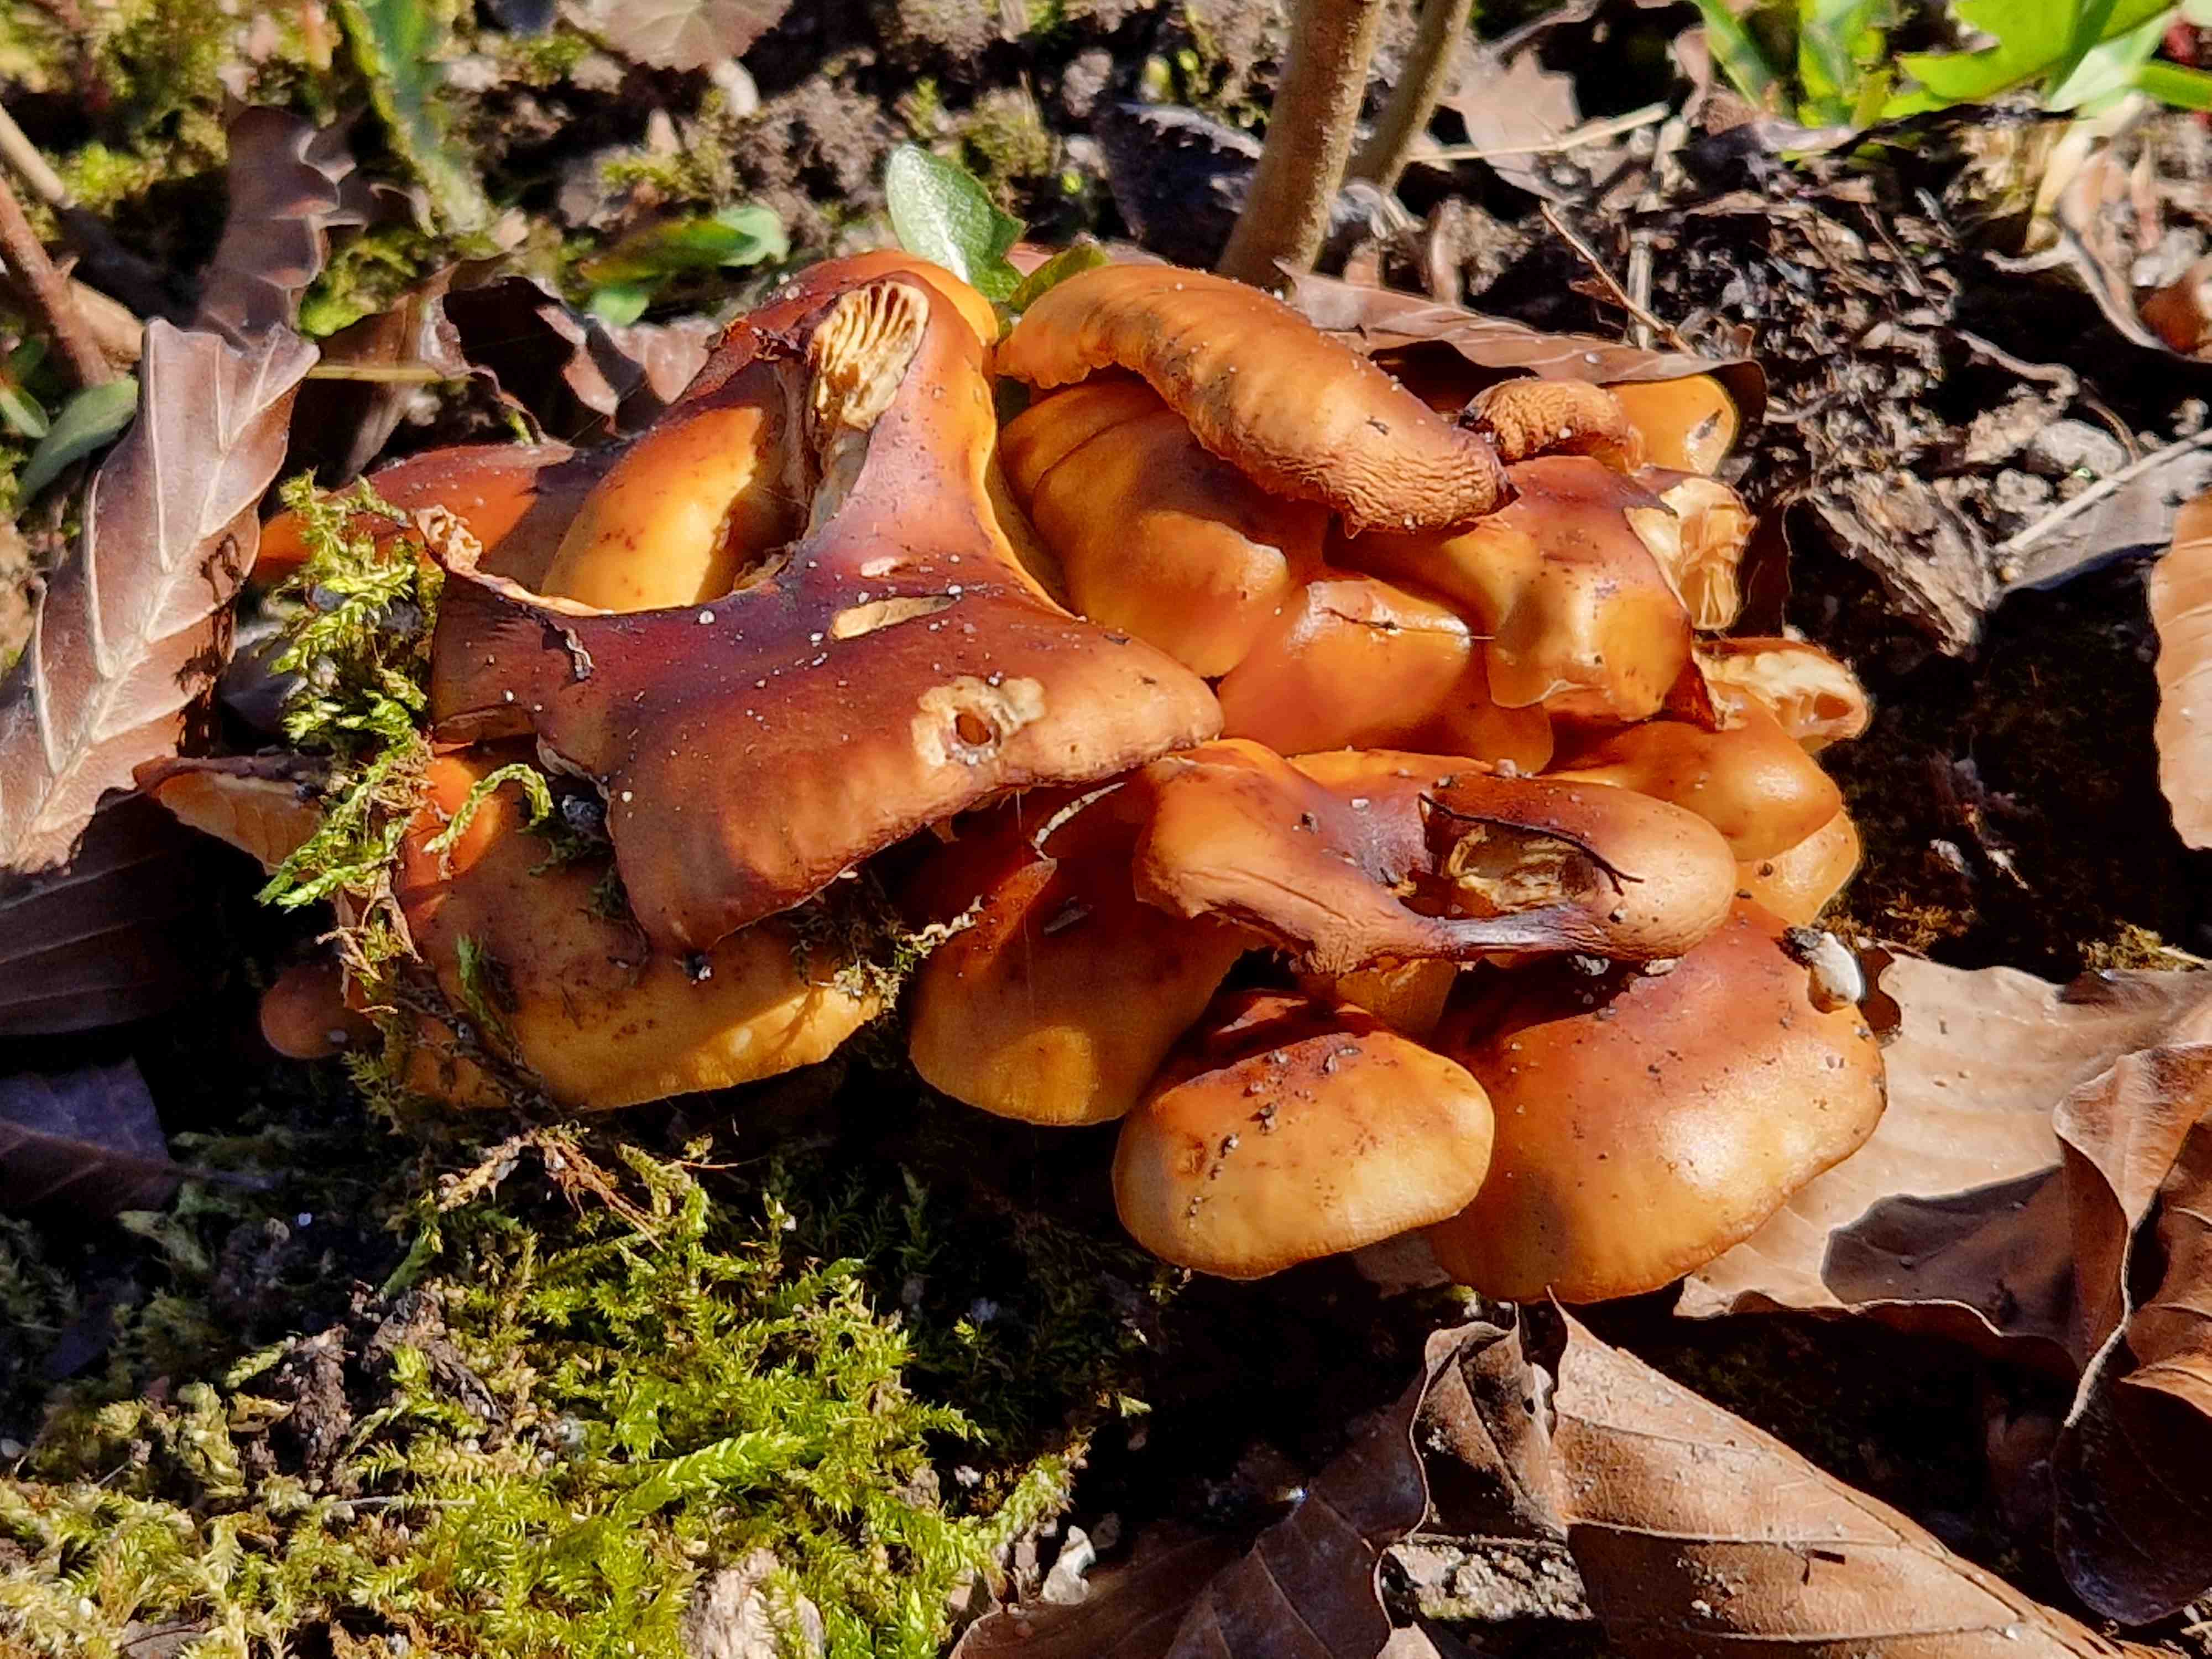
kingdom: Fungi
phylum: Basidiomycota
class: Agaricomycetes
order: Agaricales
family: Physalacriaceae
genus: Flammulina
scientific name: Flammulina
